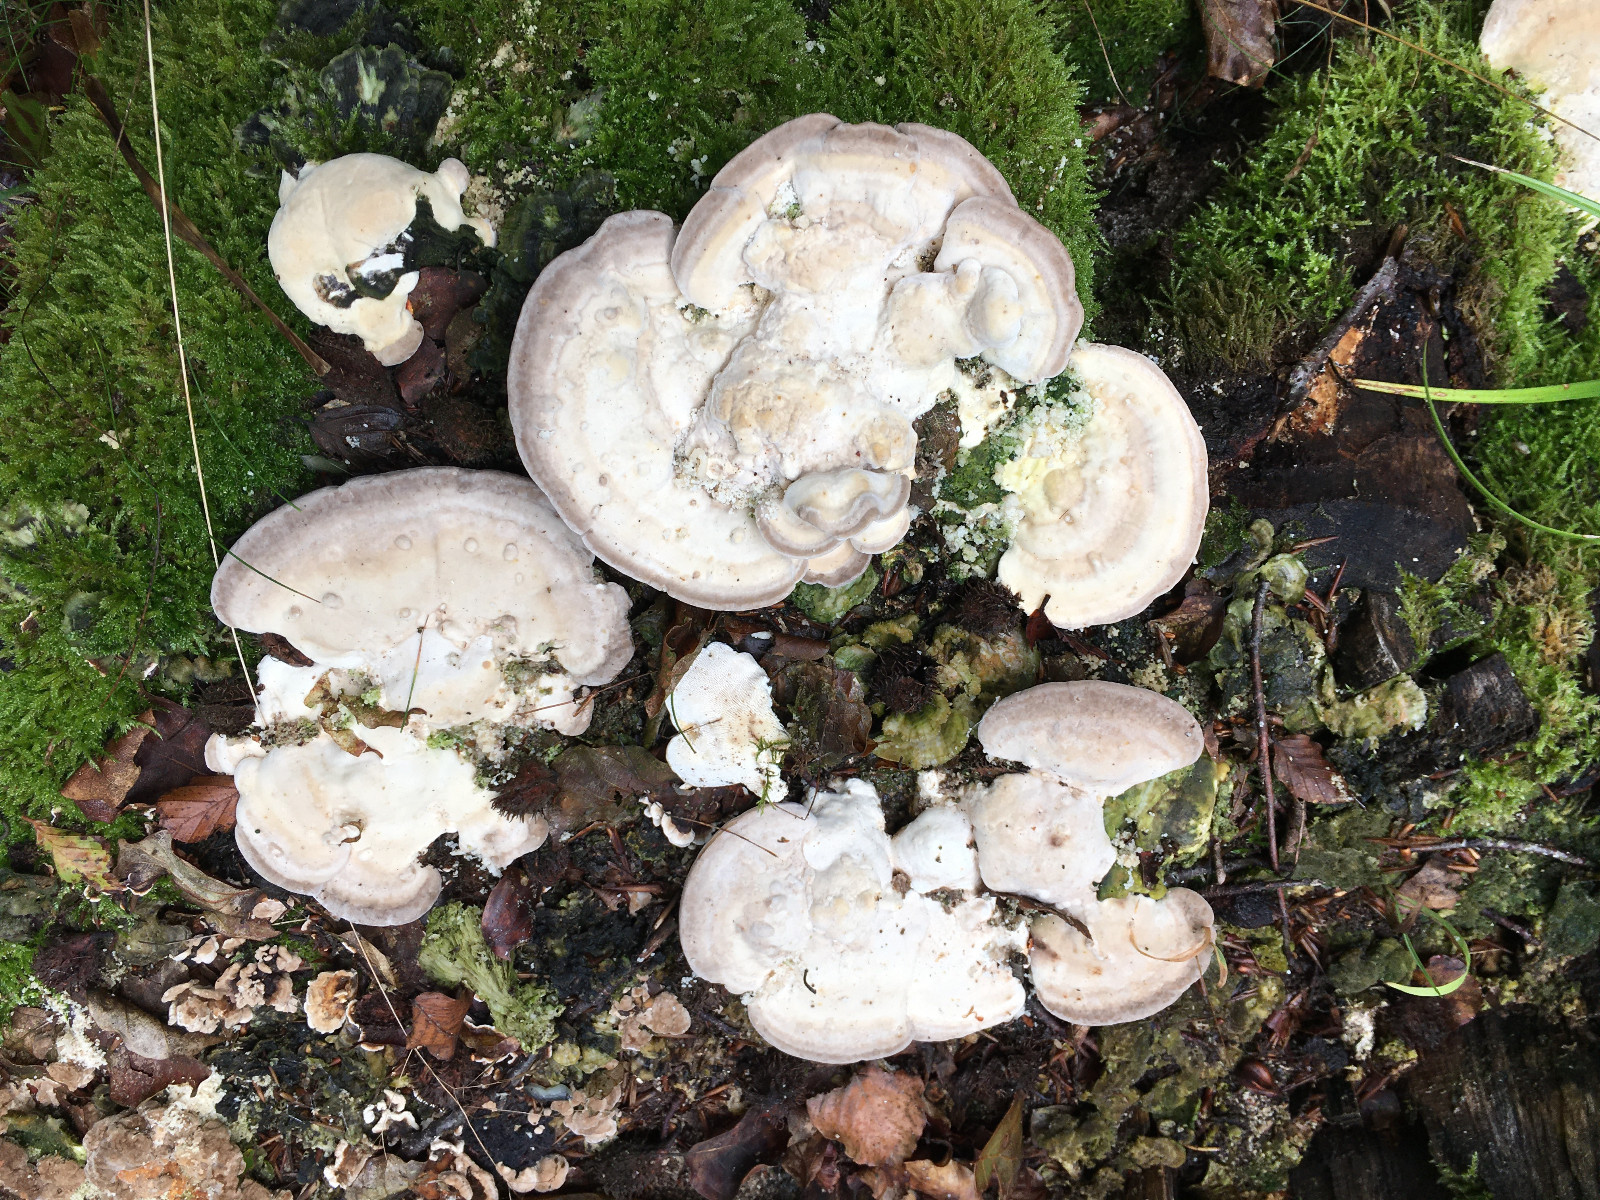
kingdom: Fungi
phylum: Basidiomycota
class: Agaricomycetes
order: Polyporales
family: Polyporaceae
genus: Trametes
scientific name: Trametes gibbosa
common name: puklet læderporesvamp
